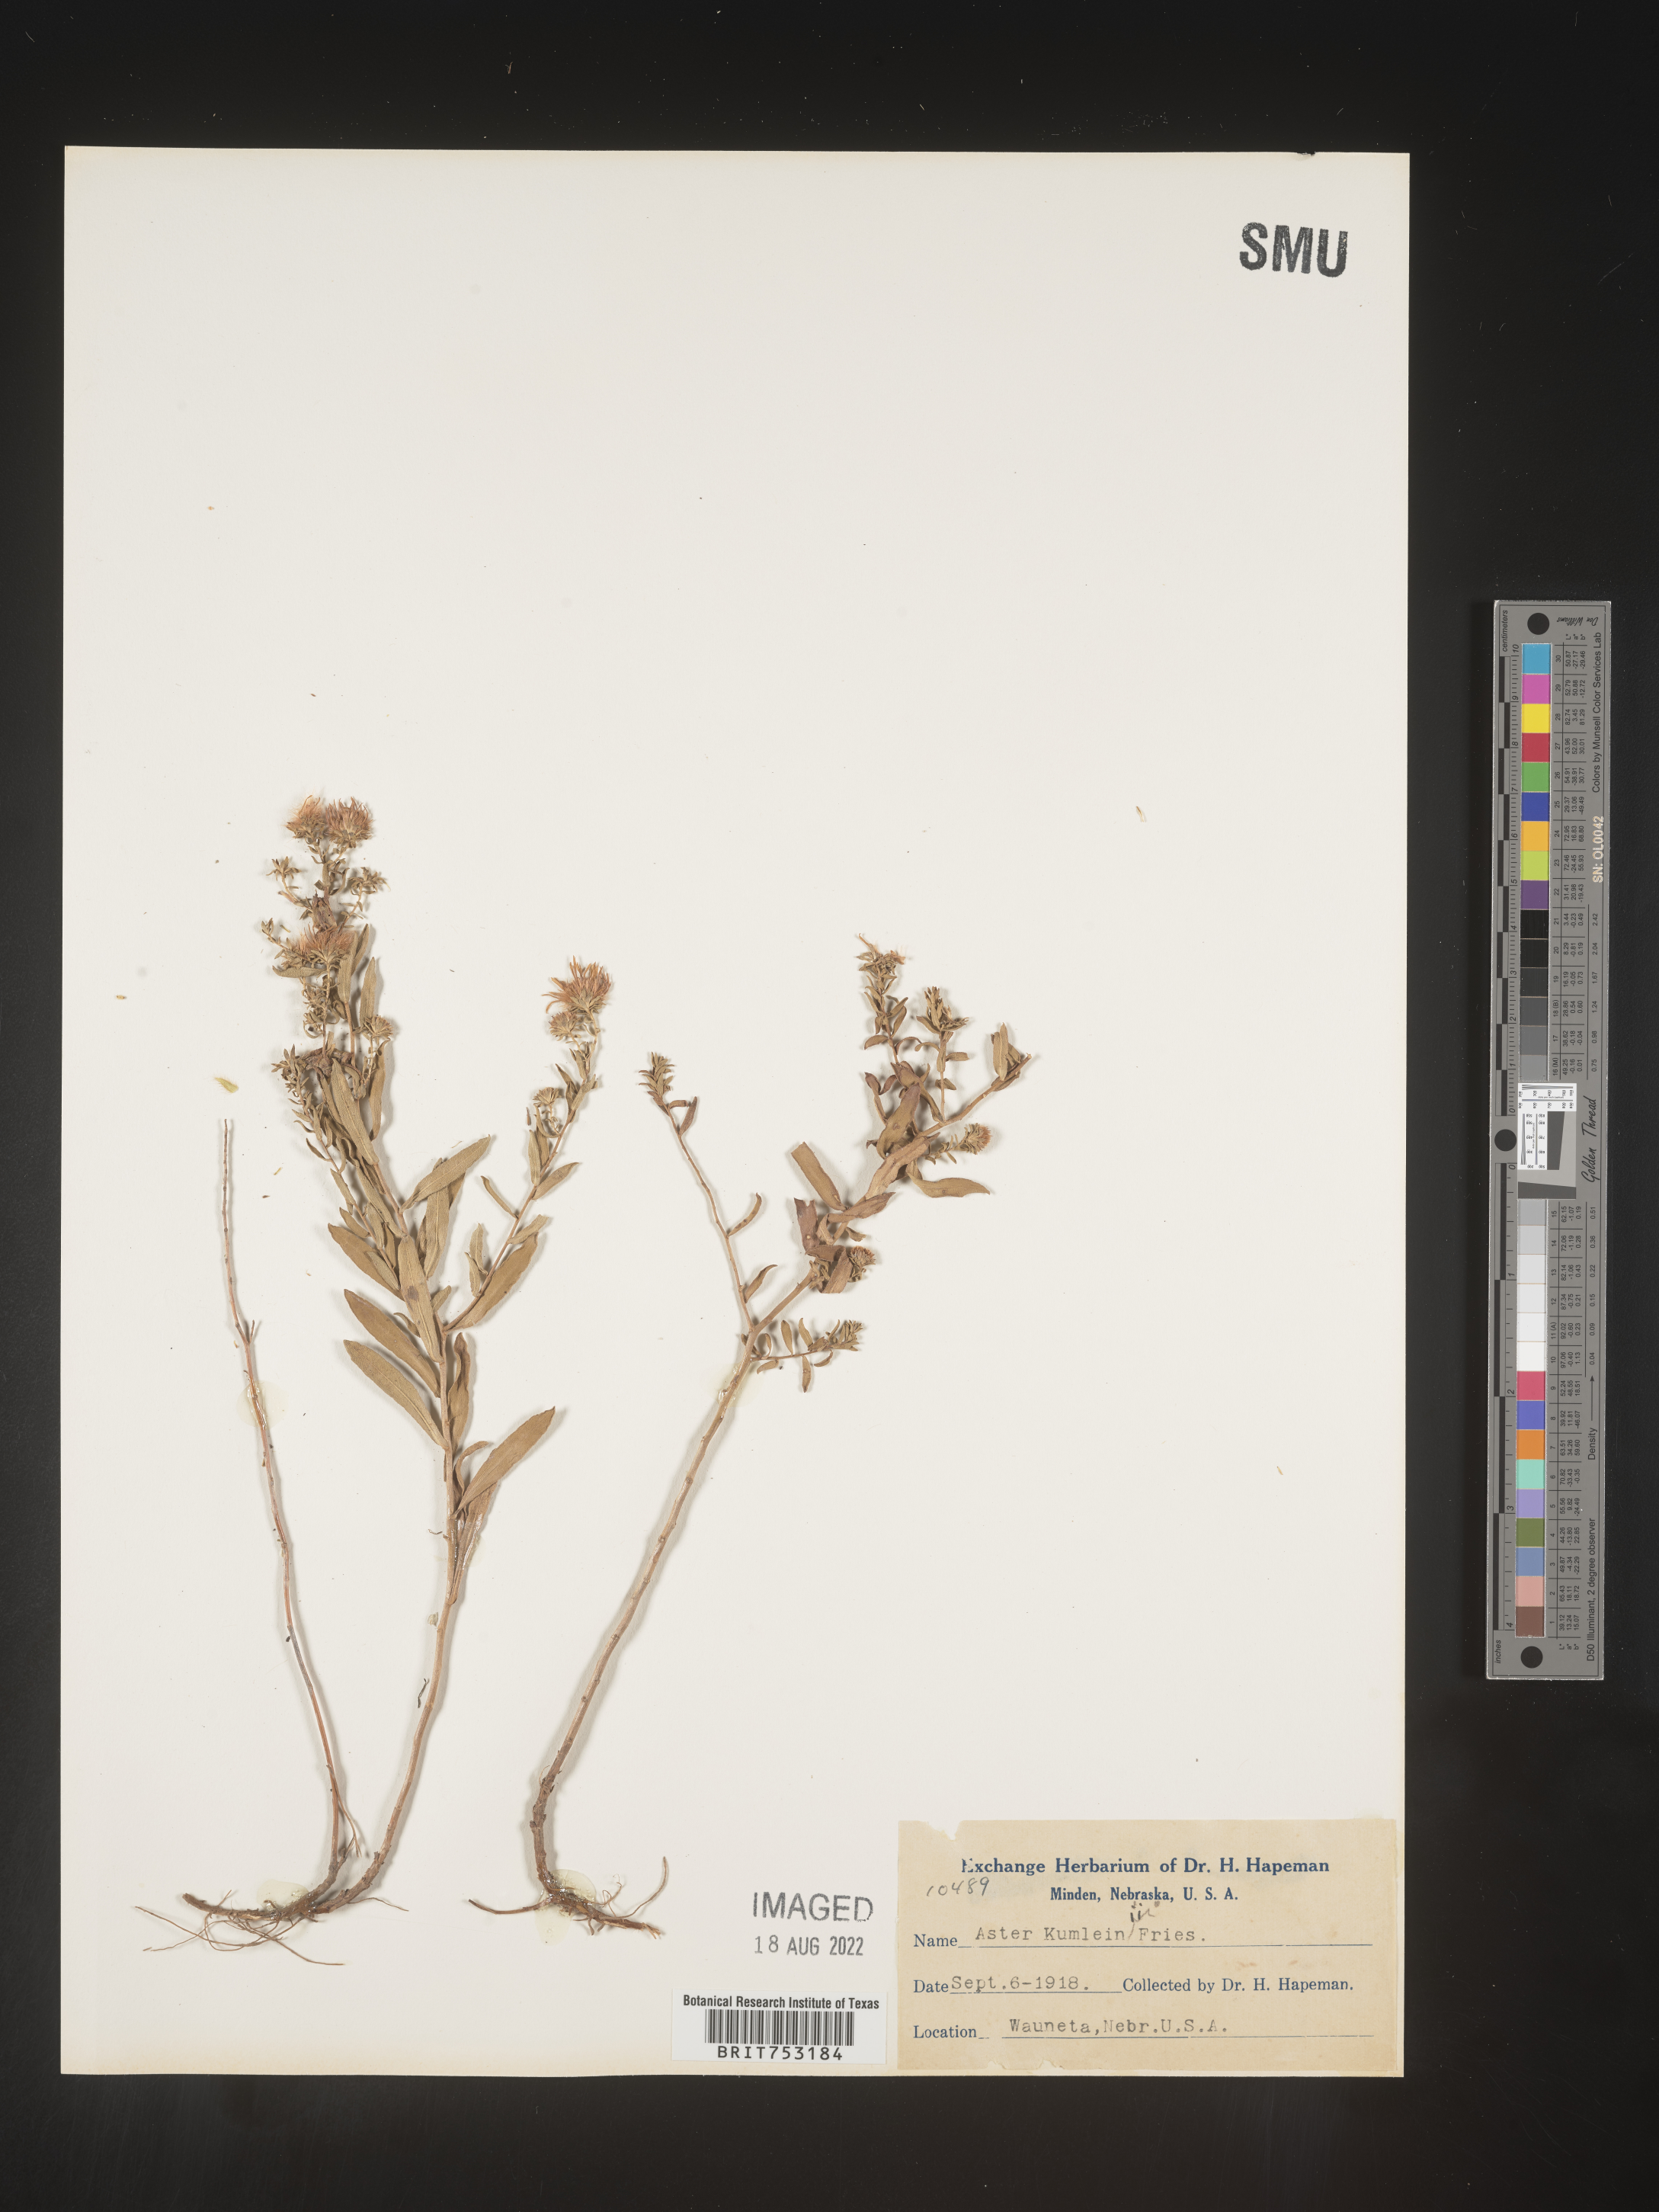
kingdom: Plantae
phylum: Tracheophyta
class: Magnoliopsida
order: Asterales
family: Asteraceae
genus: Symphyotrichum
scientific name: Symphyotrichum oblongifolium
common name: Aromatic aster
